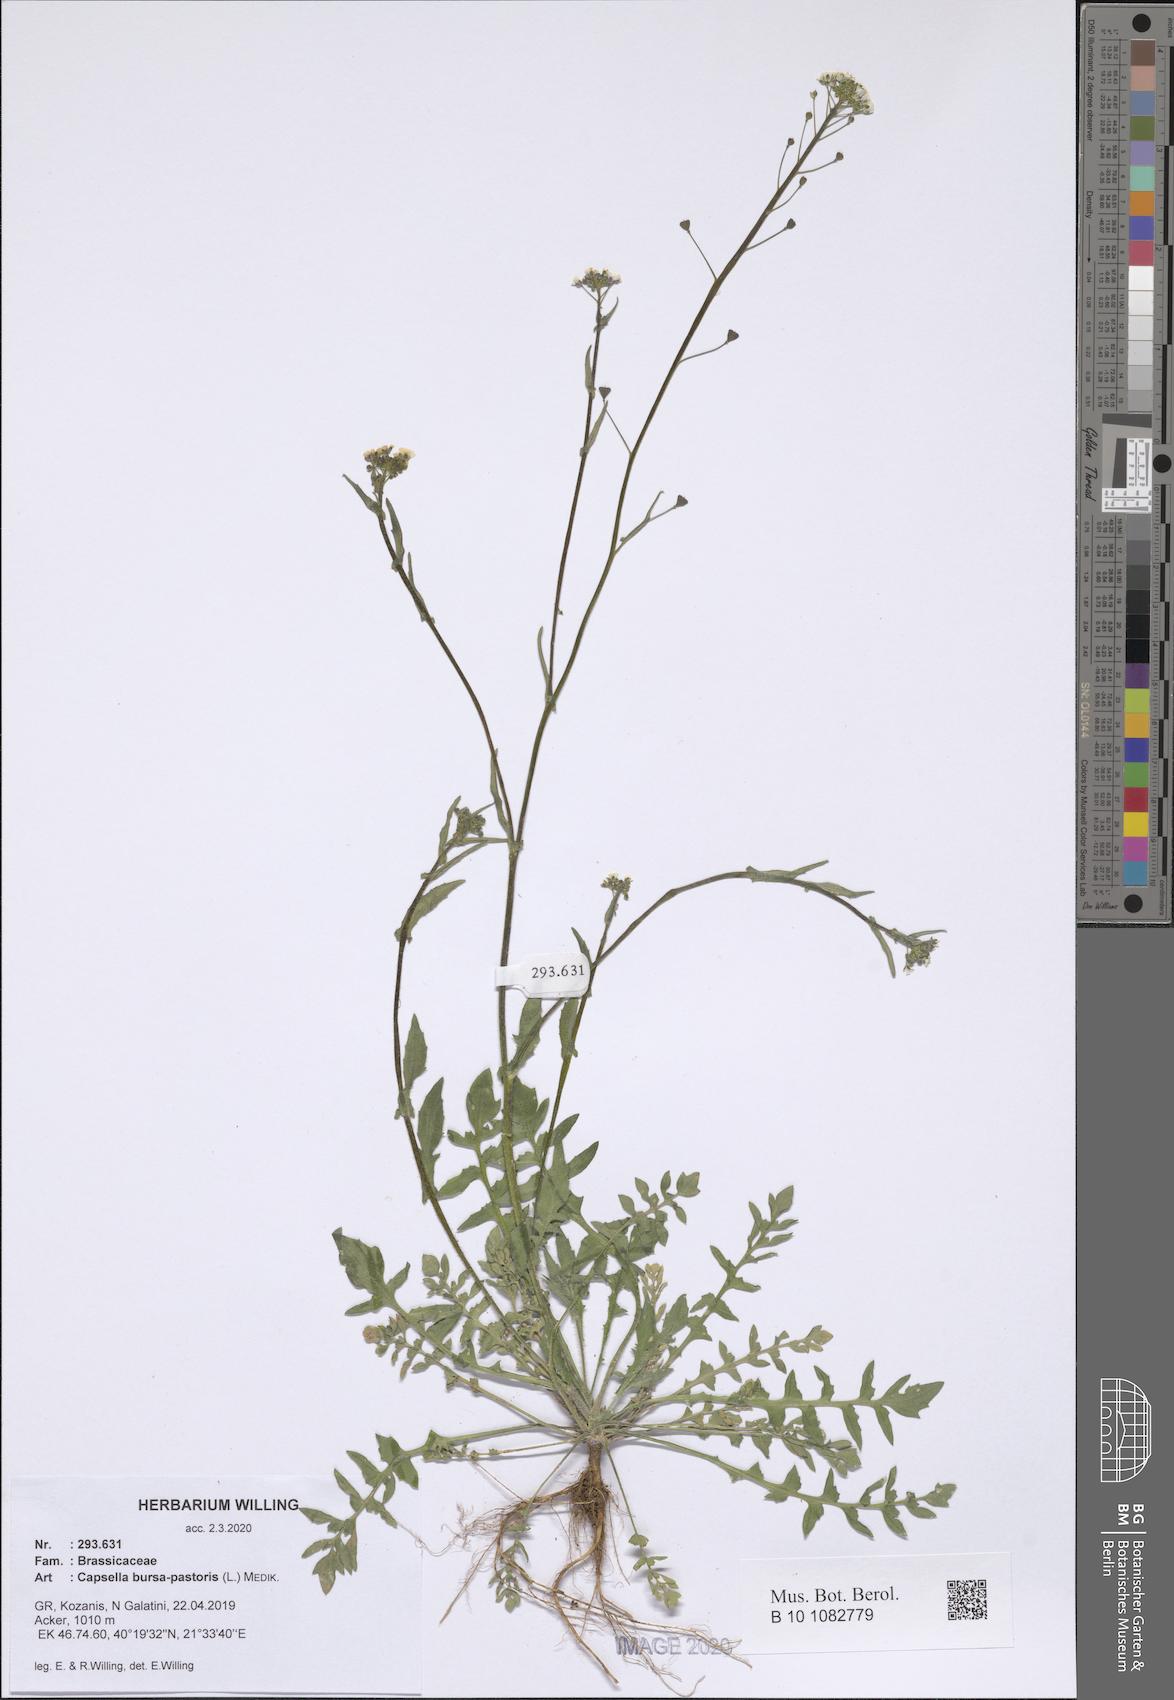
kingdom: Plantae
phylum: Tracheophyta
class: Magnoliopsida
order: Brassicales
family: Brassicaceae
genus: Capsella
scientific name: Capsella bursa-pastoris
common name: Shepherd's purse
